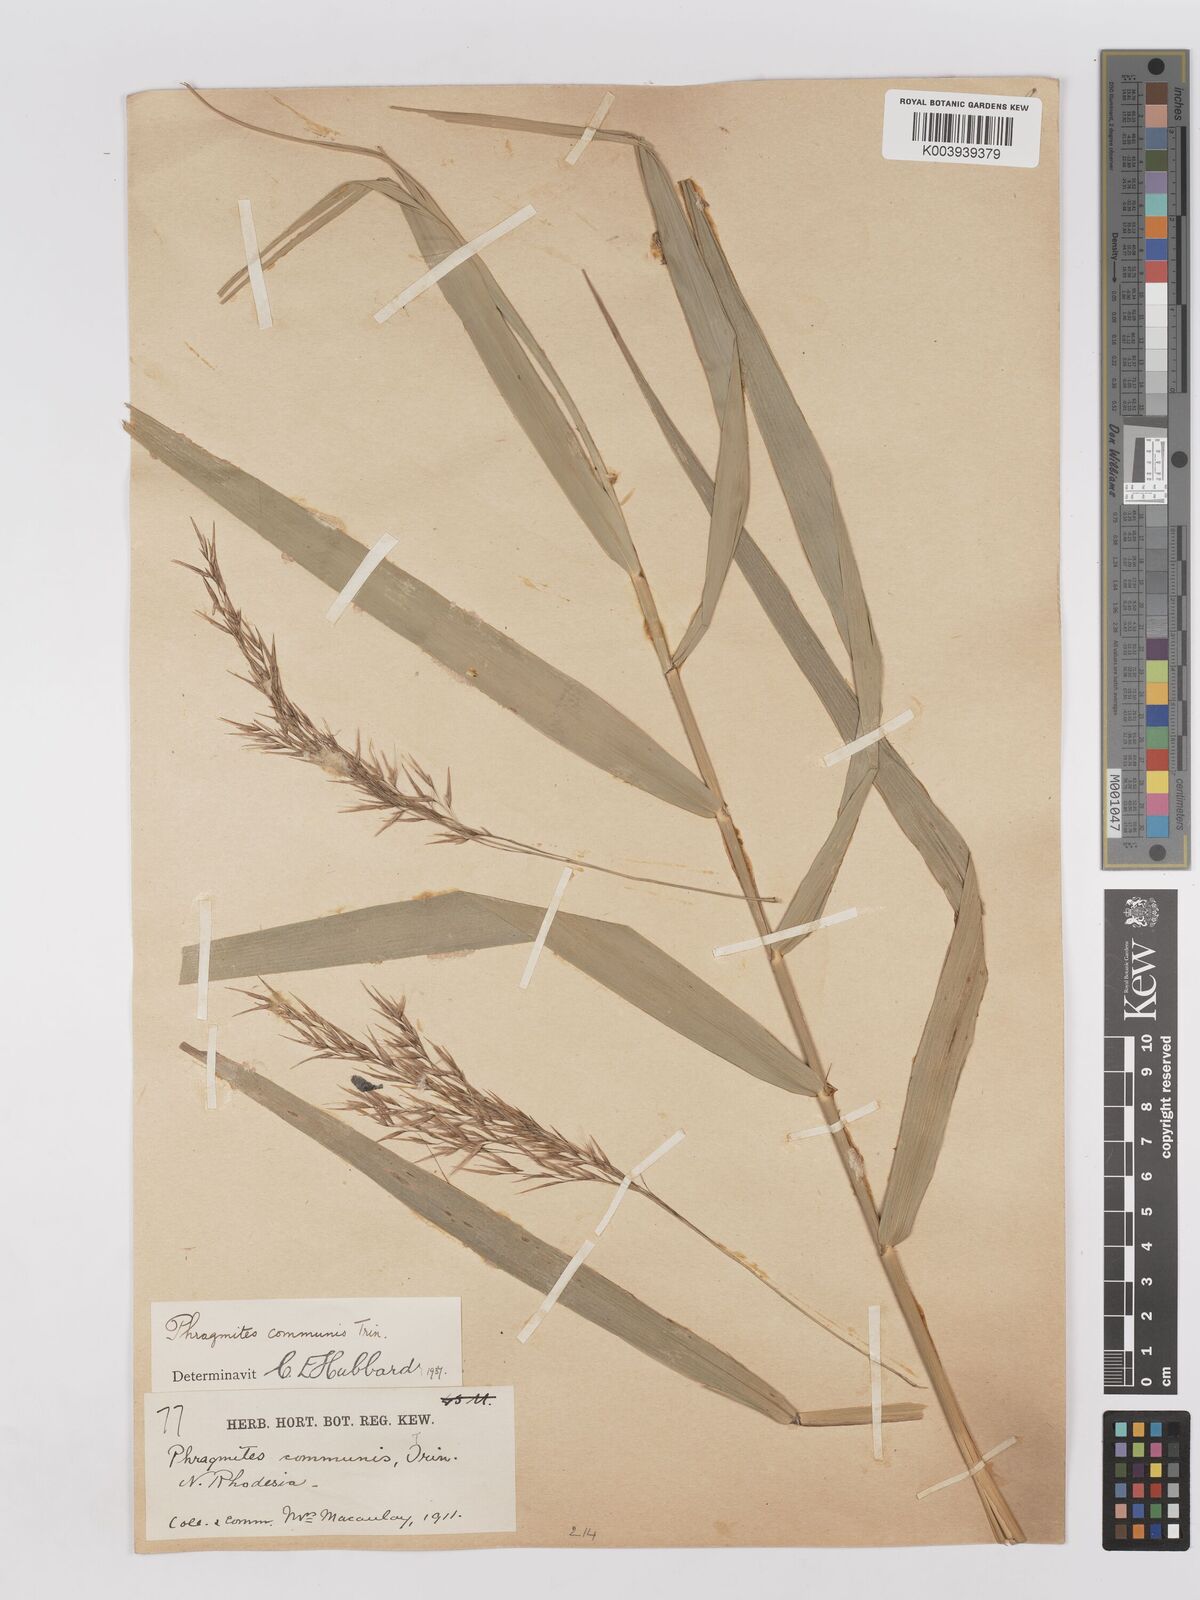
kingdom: Plantae
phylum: Tracheophyta
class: Liliopsida
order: Poales
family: Poaceae
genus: Phragmites
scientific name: Phragmites australis
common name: Common reed
